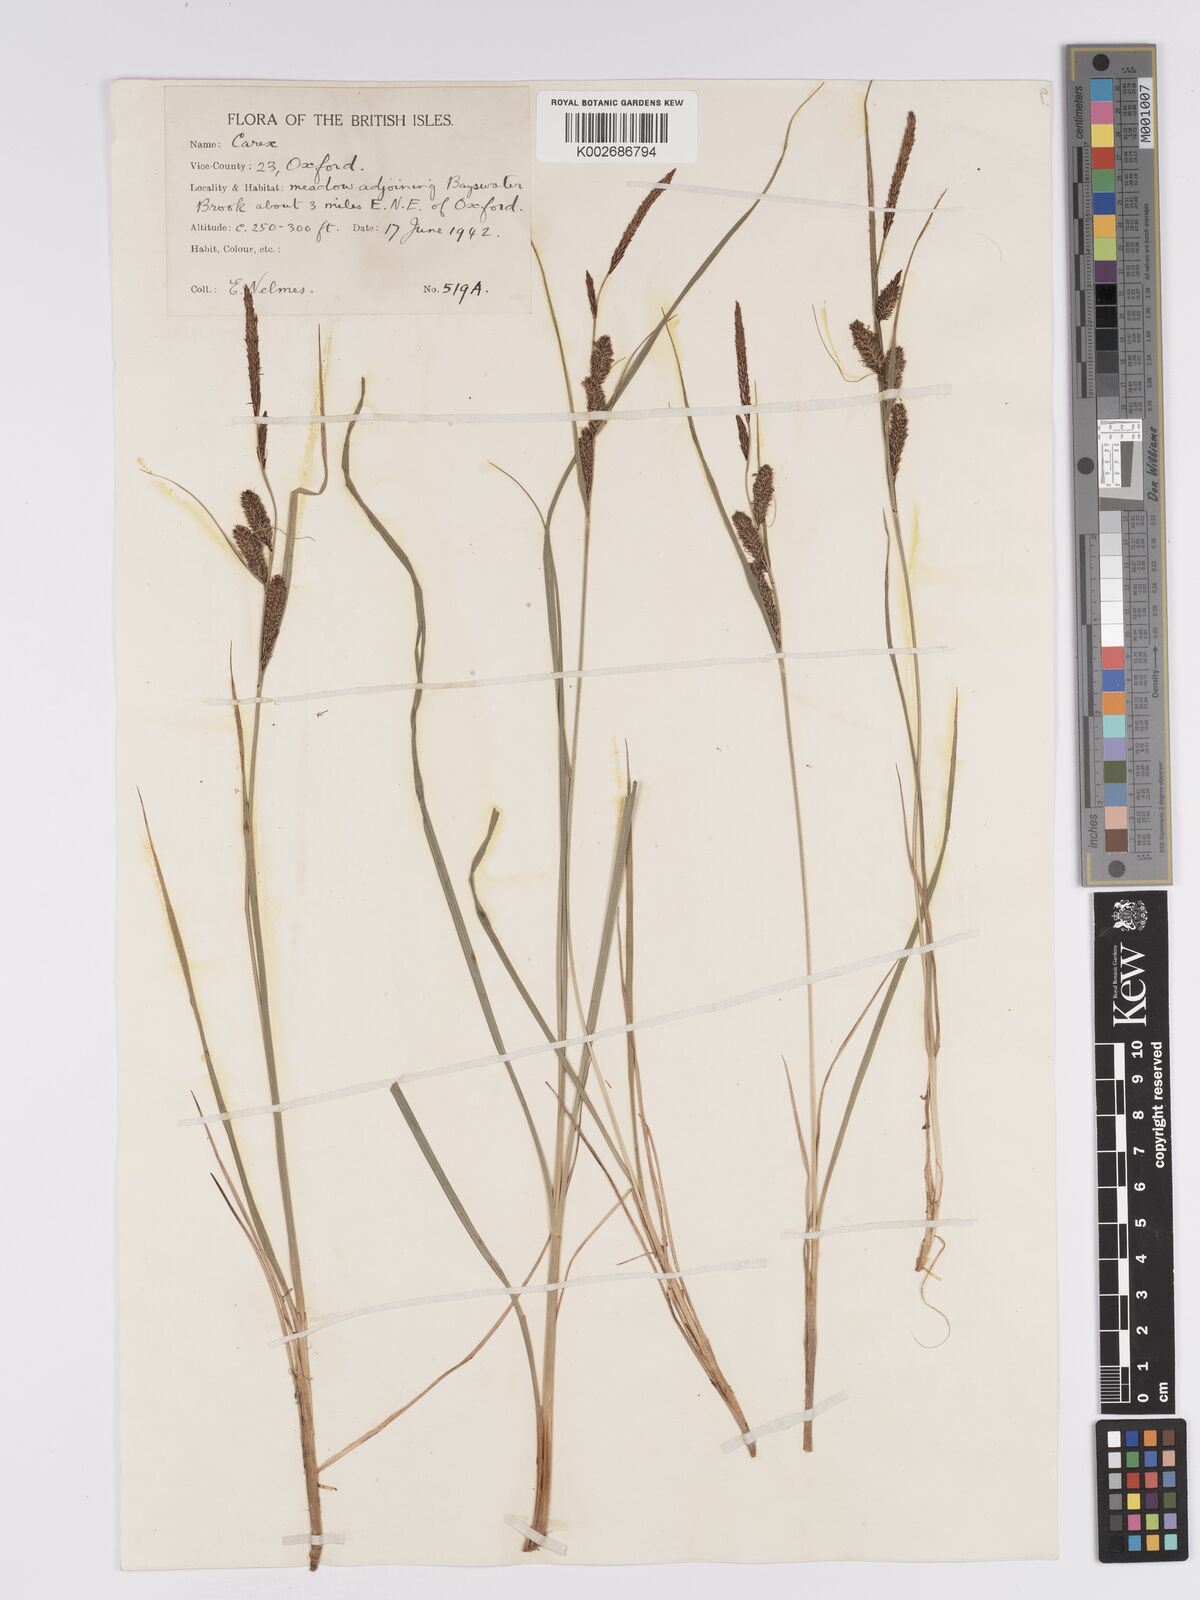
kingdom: Plantae
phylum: Tracheophyta
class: Liliopsida
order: Poales
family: Cyperaceae
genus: Carex
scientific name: Carex trinervis
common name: Three-nerved sedge
